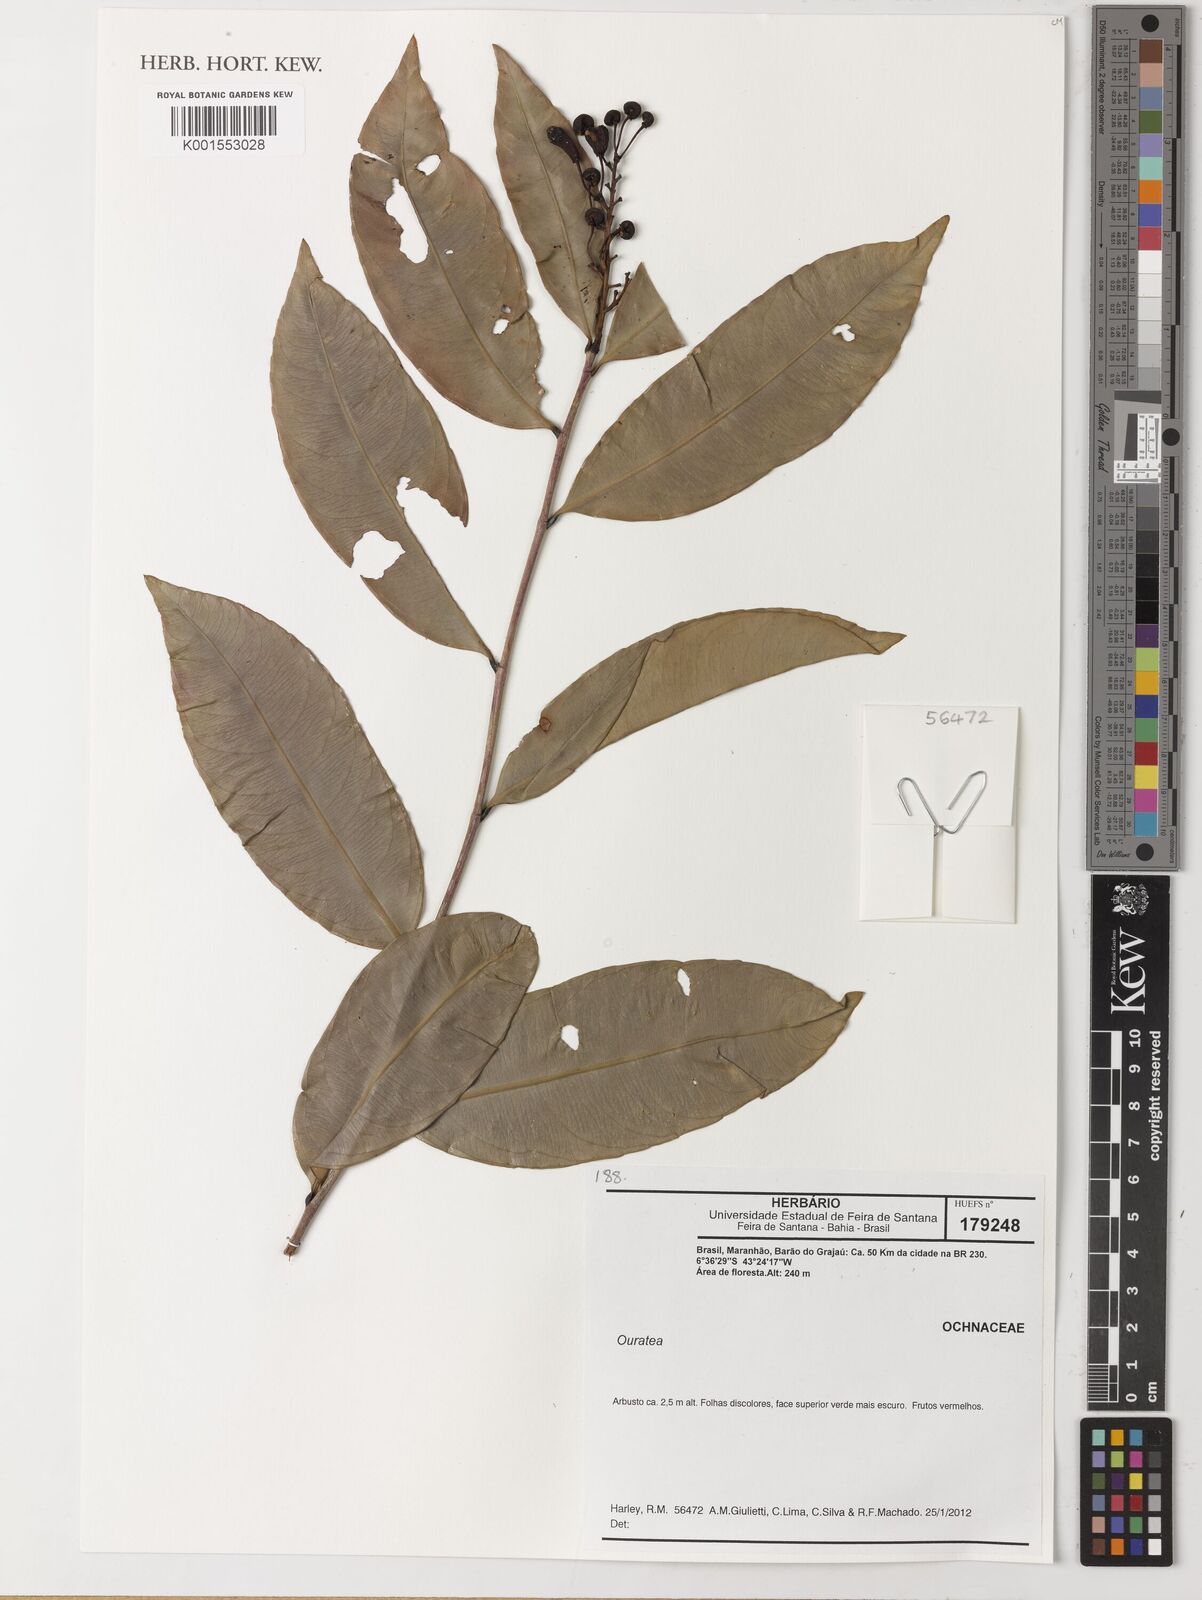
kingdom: Plantae
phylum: Tracheophyta
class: Magnoliopsida
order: Malpighiales
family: Ochnaceae
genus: Ouratea
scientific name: Ouratea
